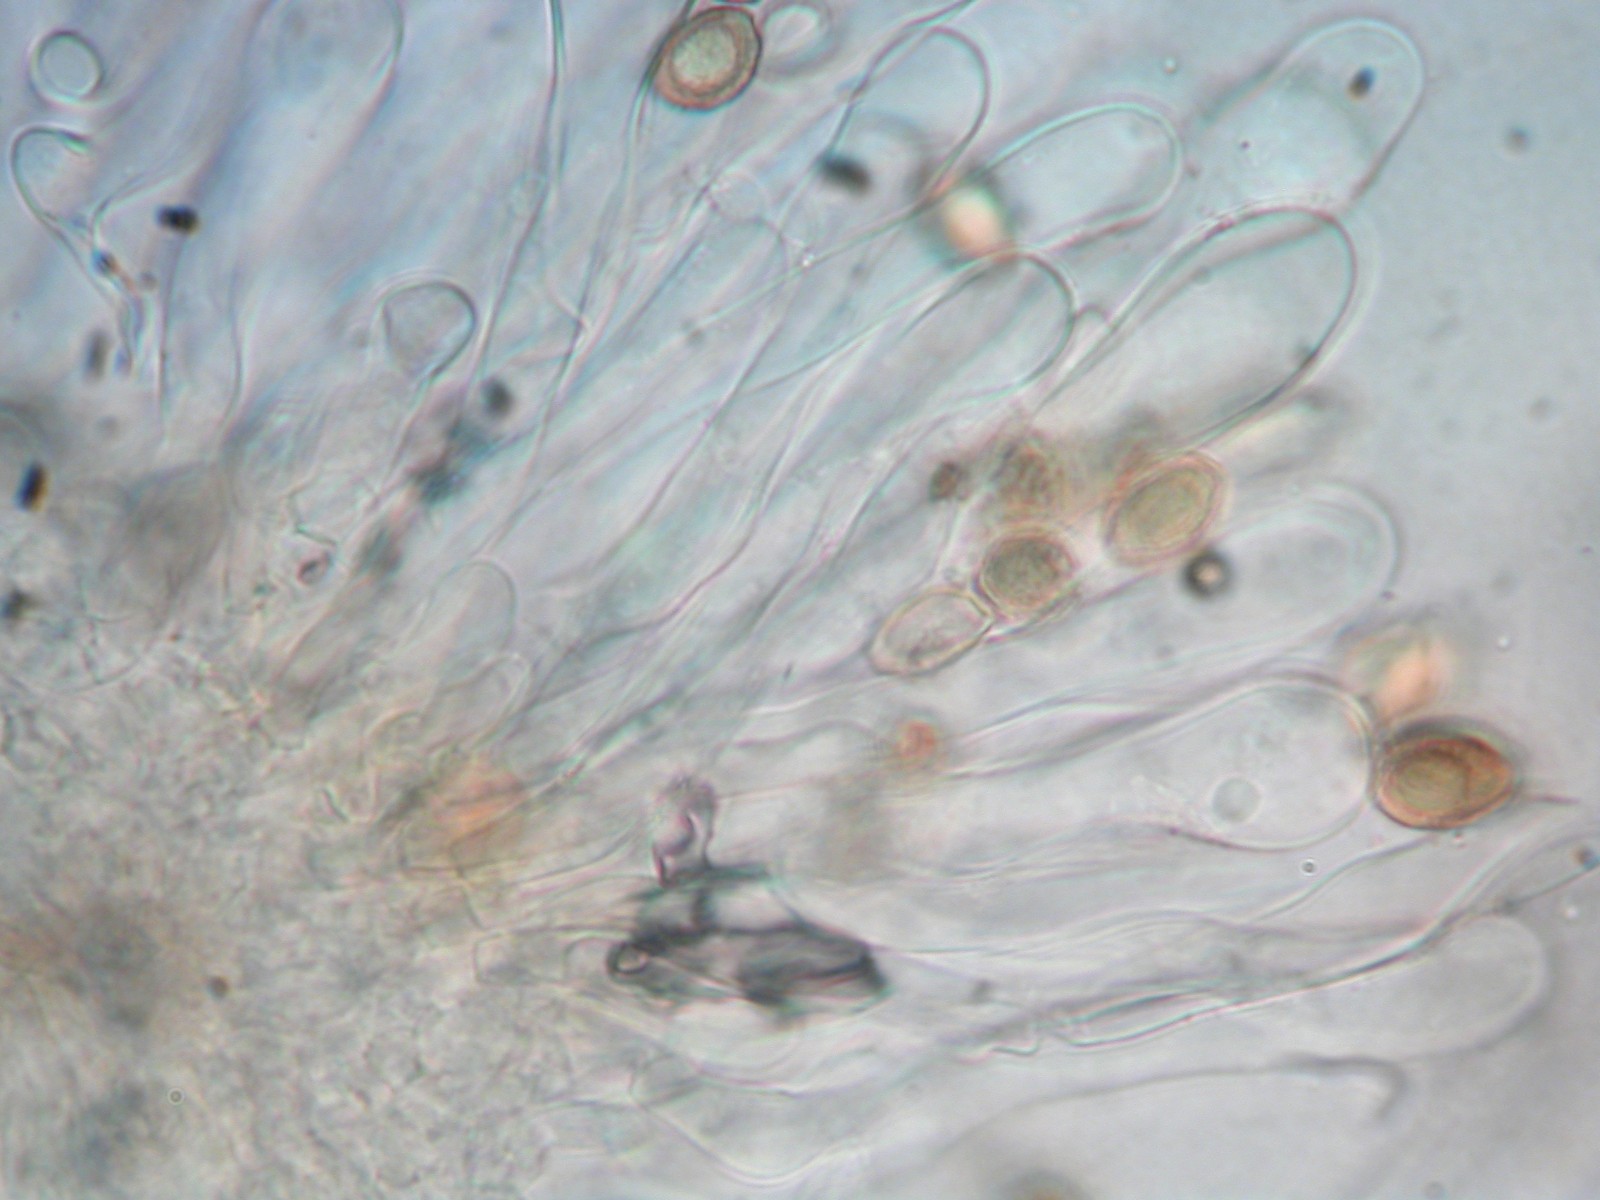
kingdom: Fungi
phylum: Basidiomycota
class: Agaricomycetes
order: Agaricales
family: Hymenogastraceae
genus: Hebeloma
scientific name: Hebeloma eburneum
